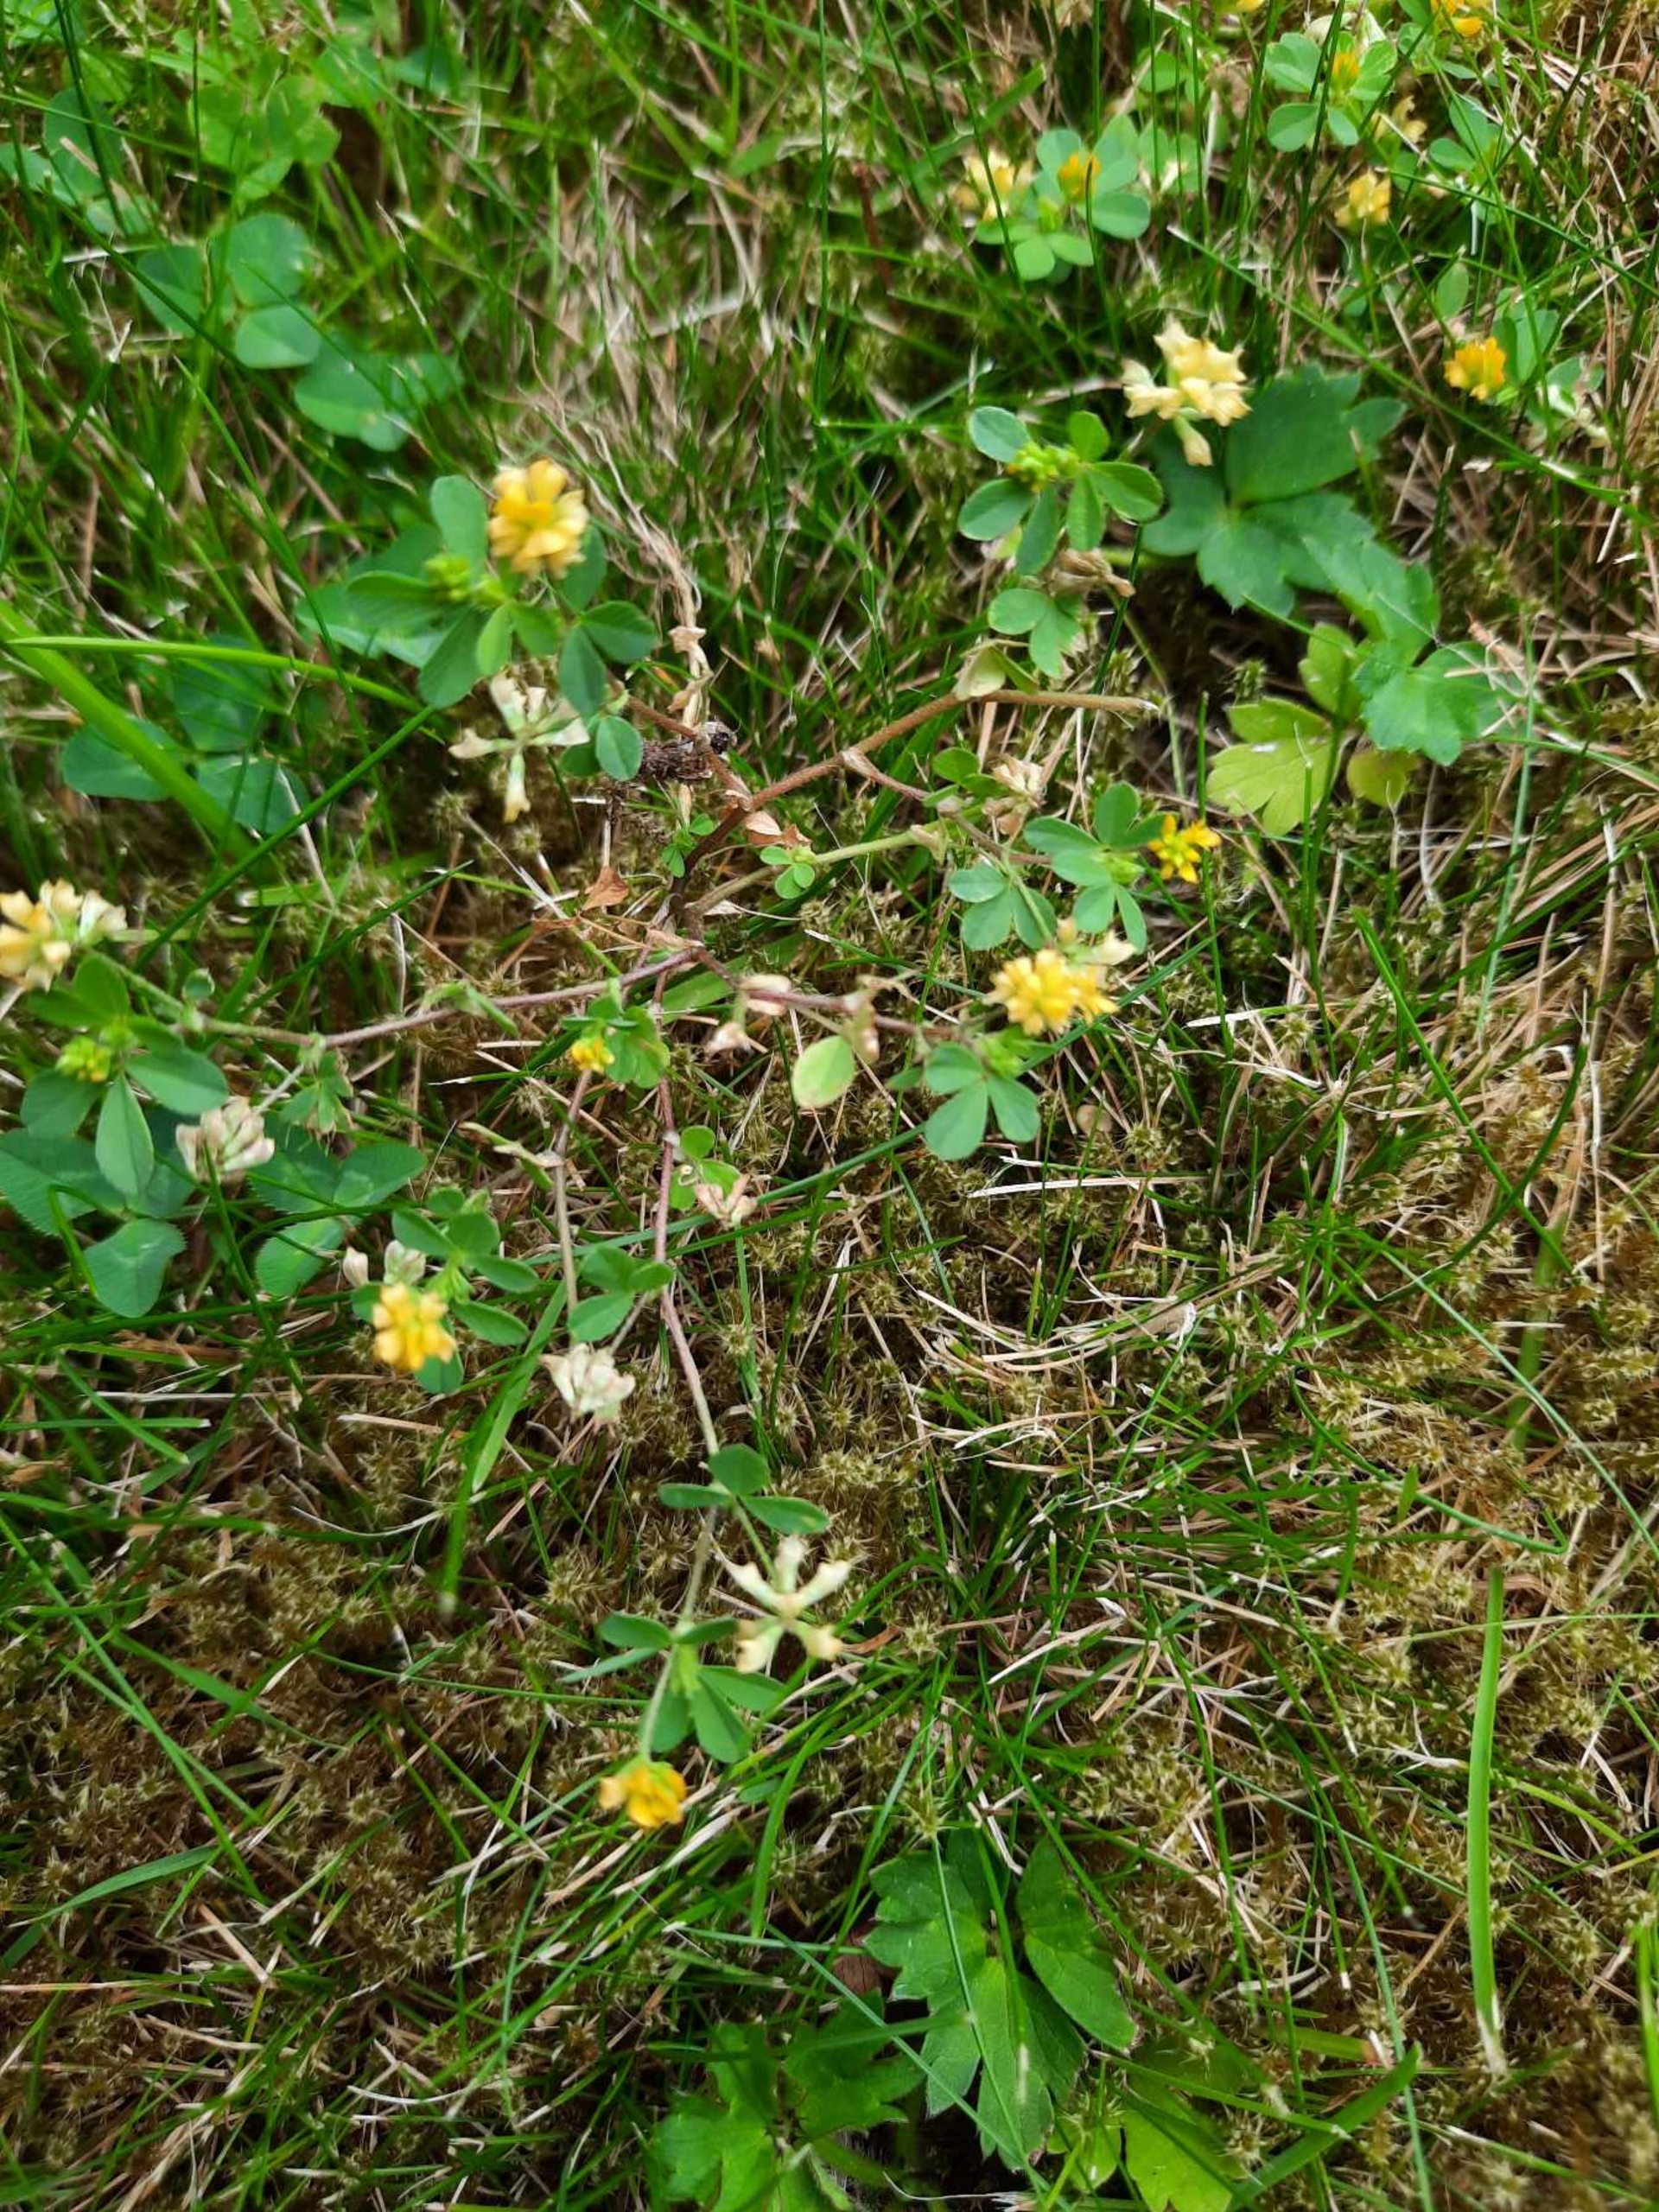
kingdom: Plantae
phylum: Tracheophyta
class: Magnoliopsida
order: Fabales
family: Fabaceae
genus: Trifolium
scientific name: Trifolium dubium
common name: Fin kløver
